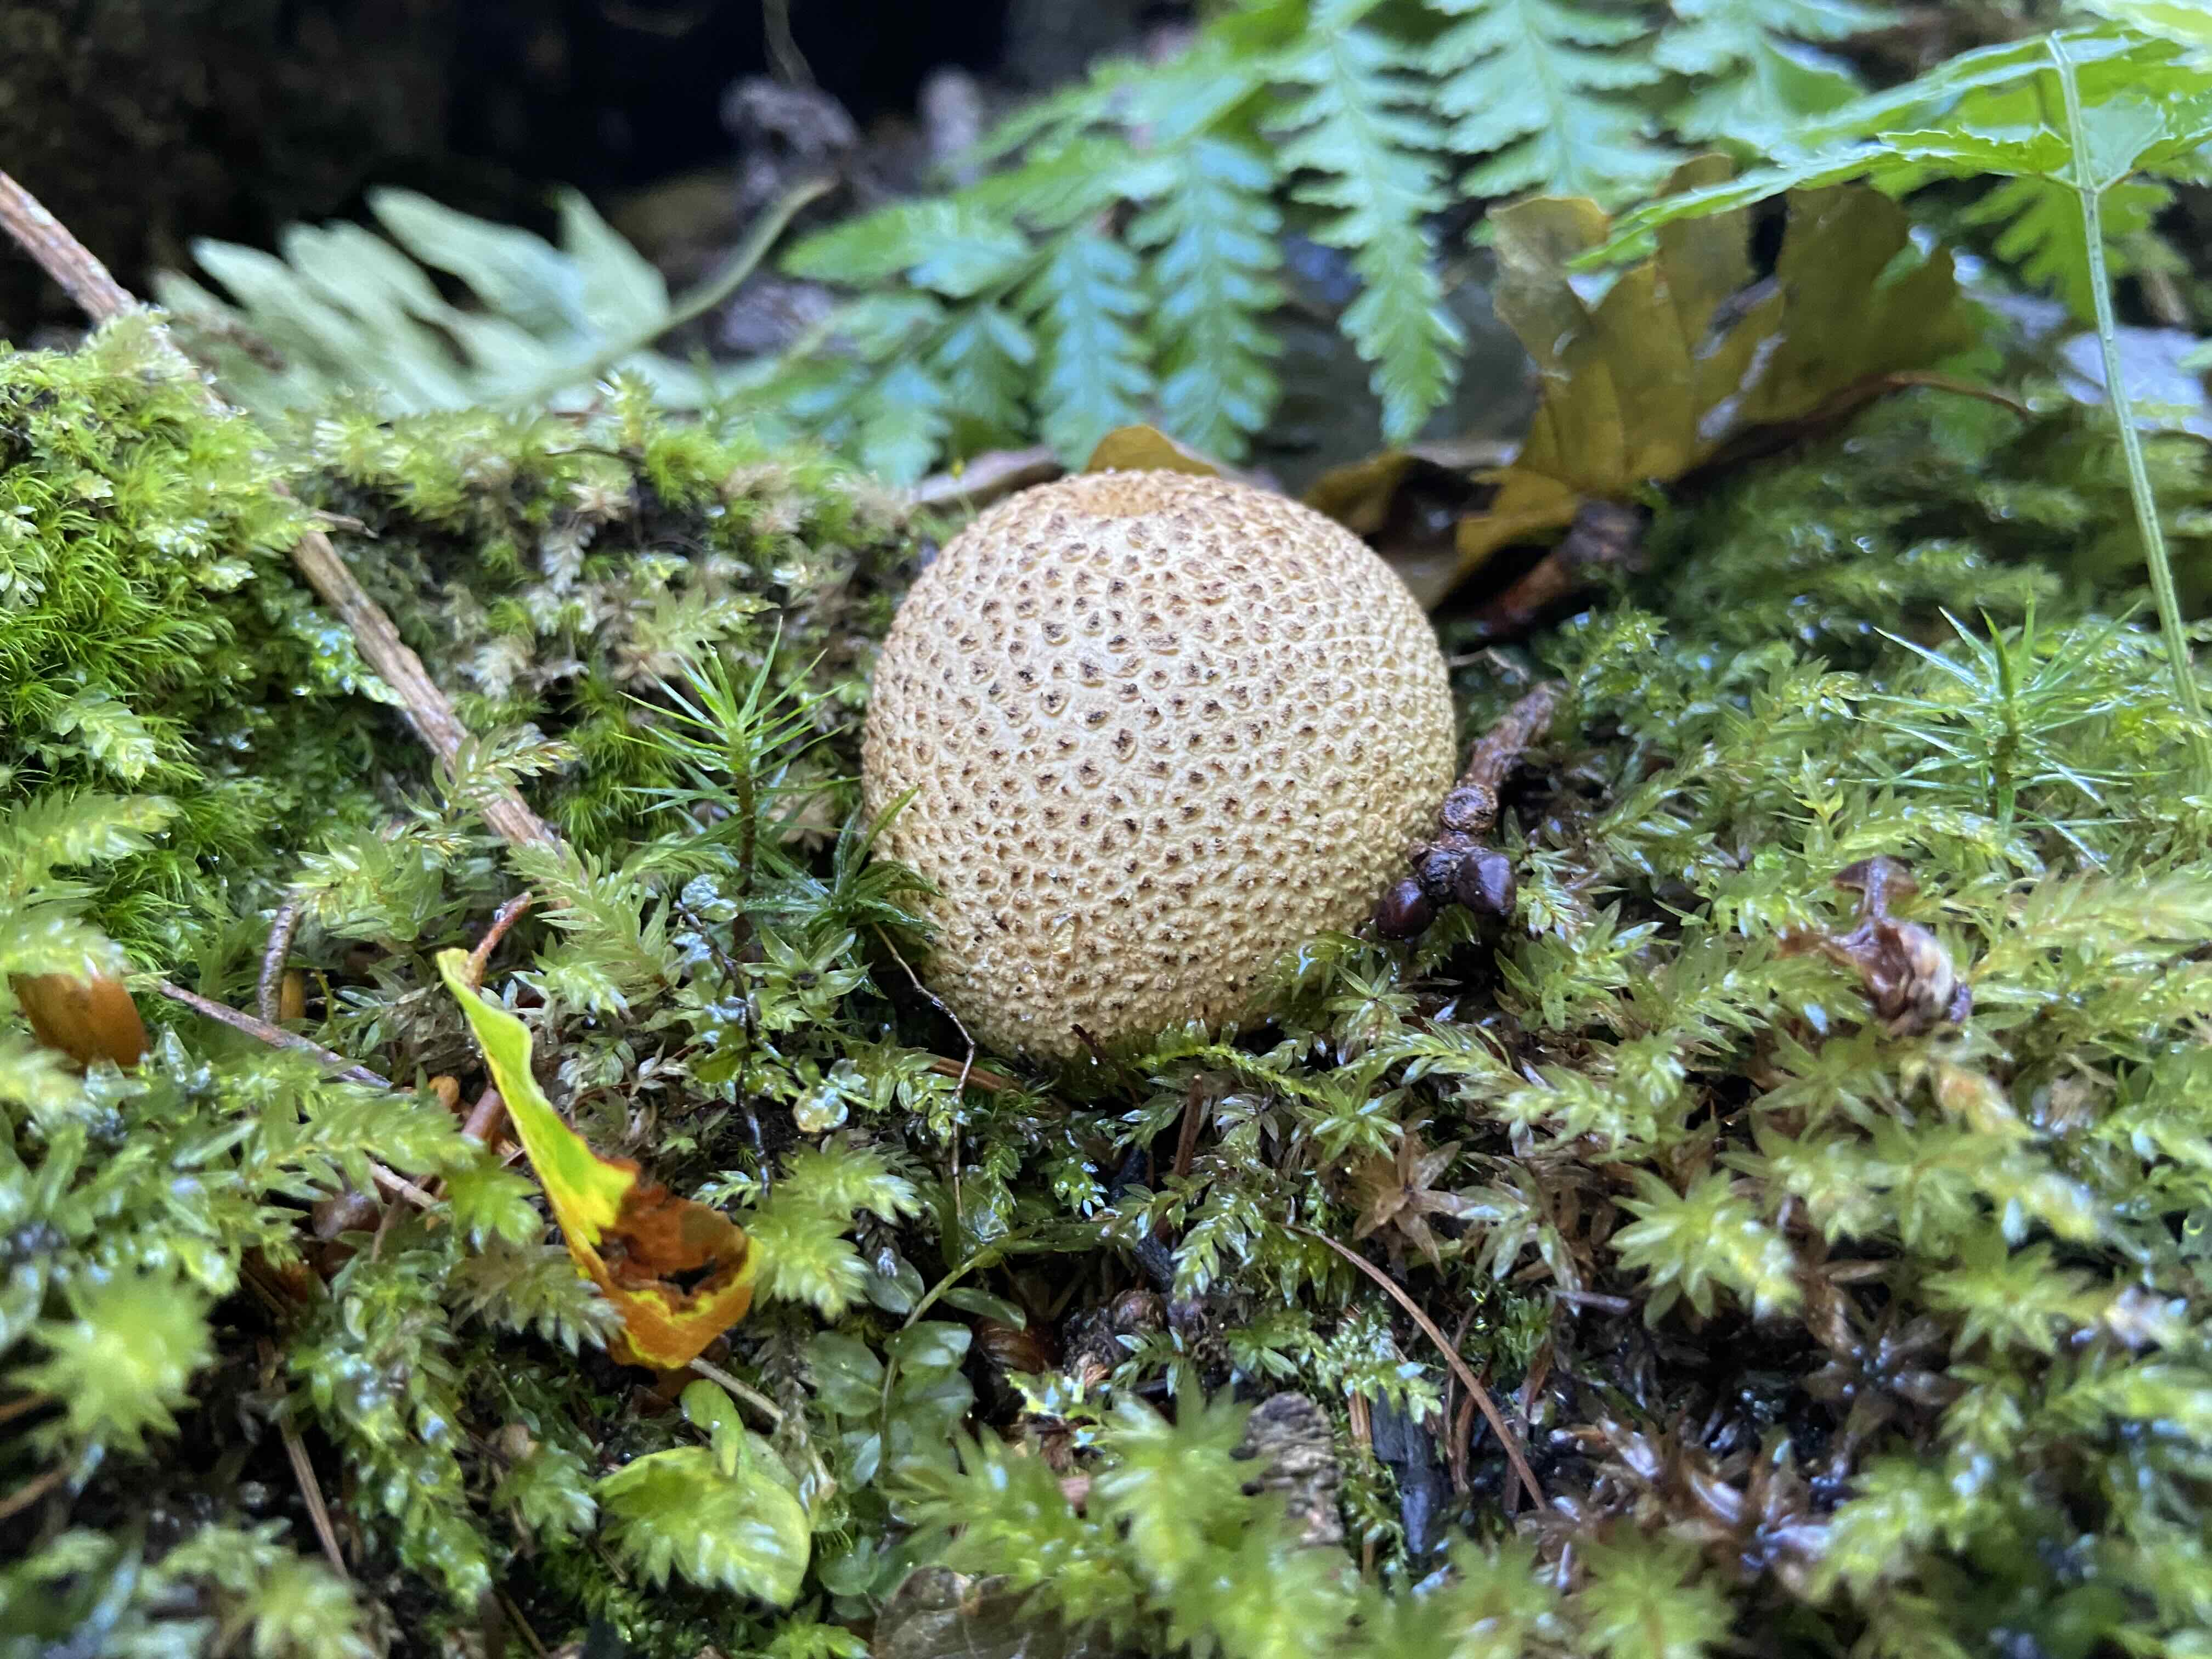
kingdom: Fungi
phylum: Basidiomycota
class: Agaricomycetes
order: Boletales
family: Sclerodermataceae
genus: Scleroderma
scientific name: Scleroderma citrinum
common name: almindelig bruskbold
